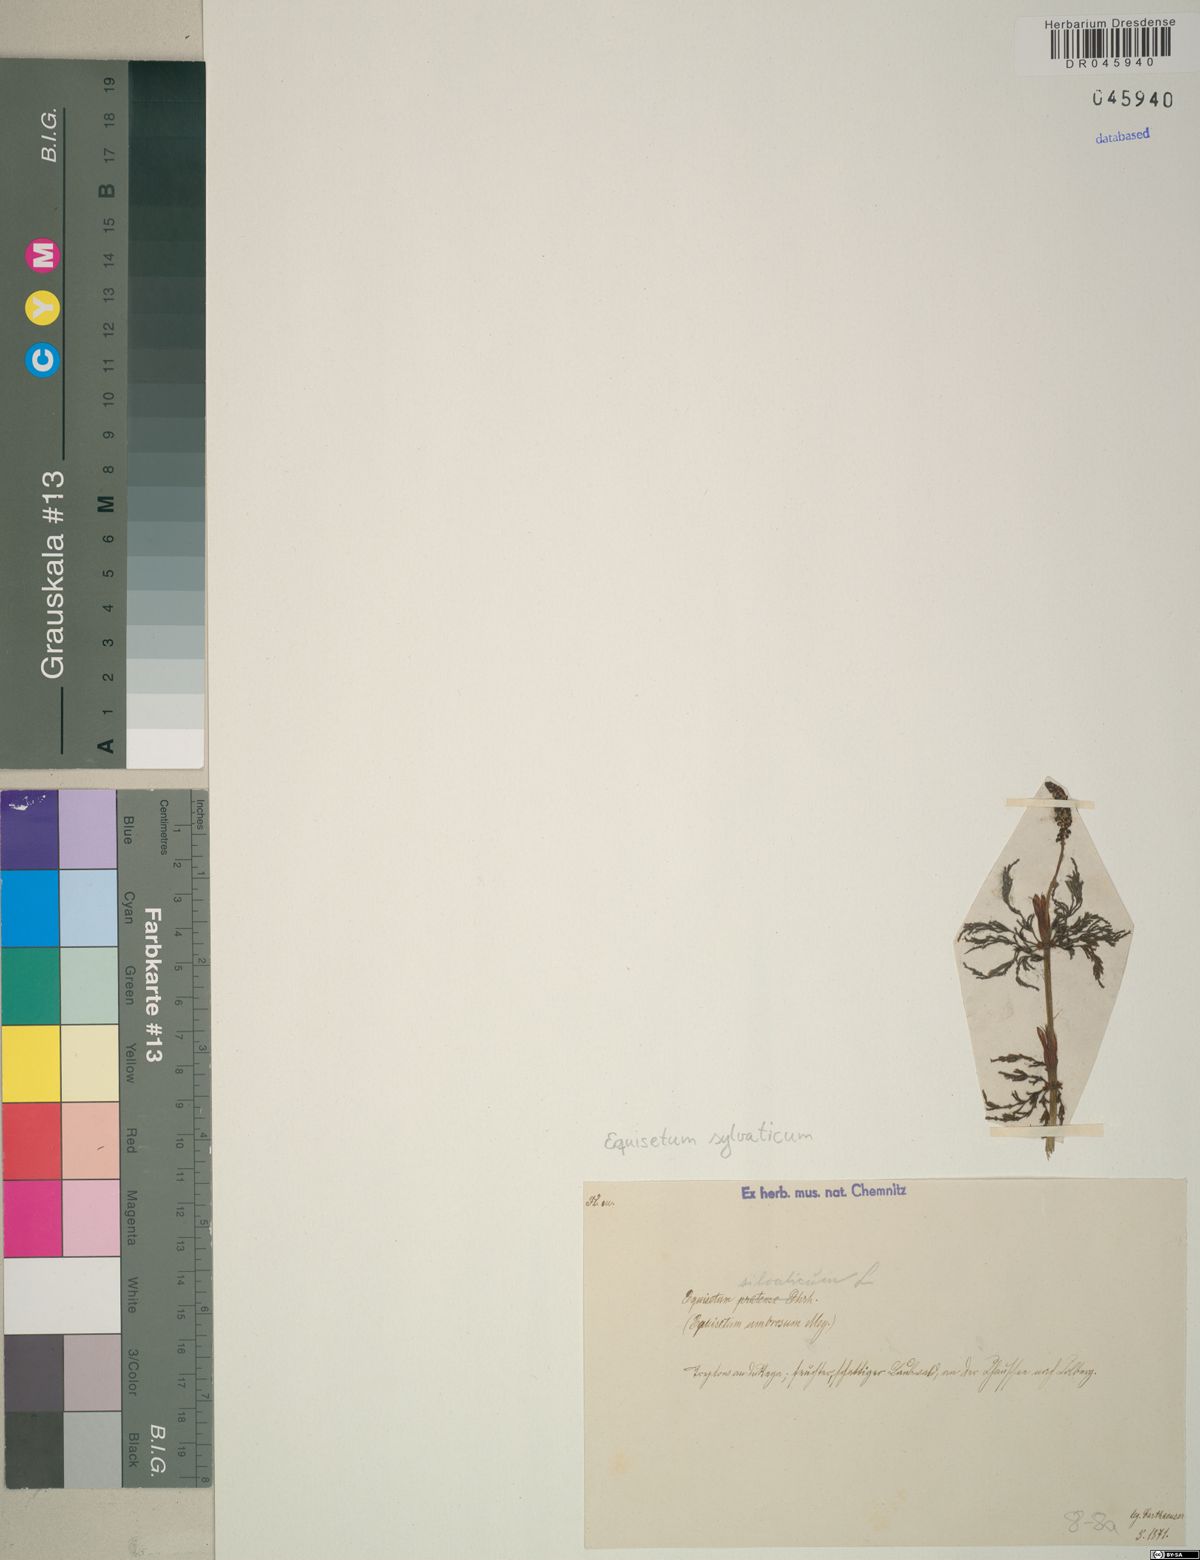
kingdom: Plantae
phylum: Tracheophyta
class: Polypodiopsida
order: Equisetales
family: Equisetaceae
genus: Equisetum
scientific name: Equisetum sylvaticum
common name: Wood horsetail
